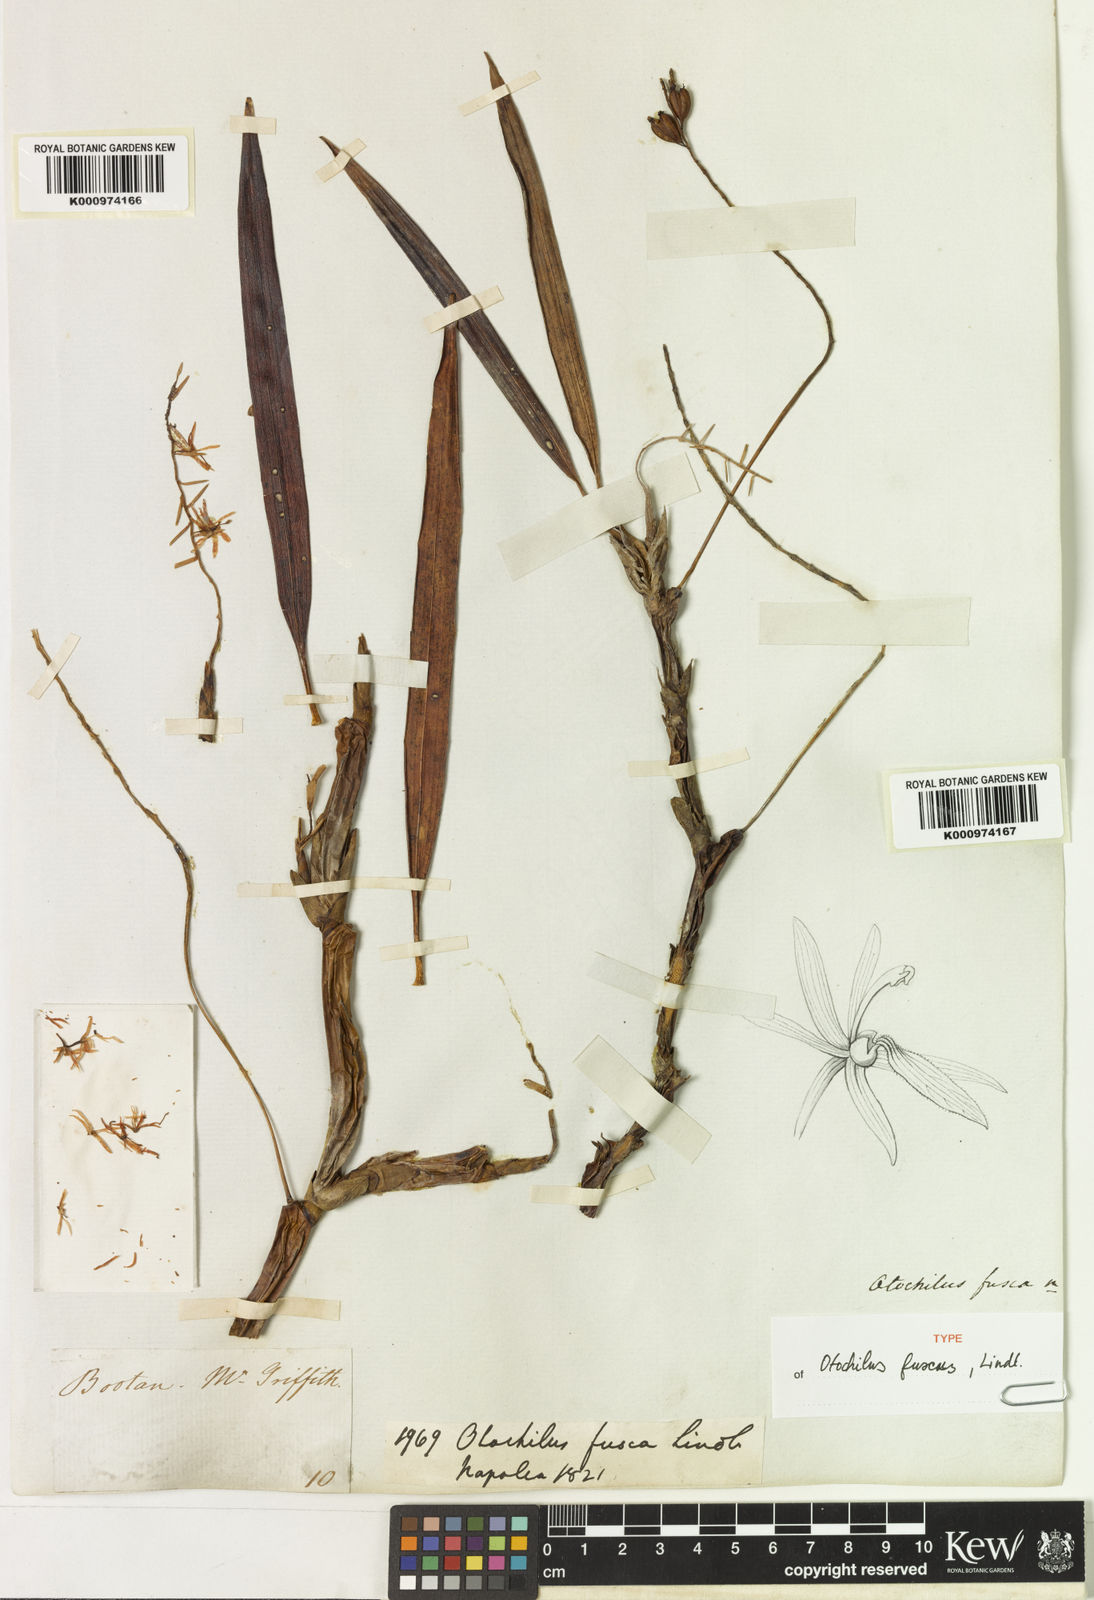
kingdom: Plantae
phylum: Tracheophyta
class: Liliopsida
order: Asparagales
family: Orchidaceae
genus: Coelogyne
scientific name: Coelogyne fusca
